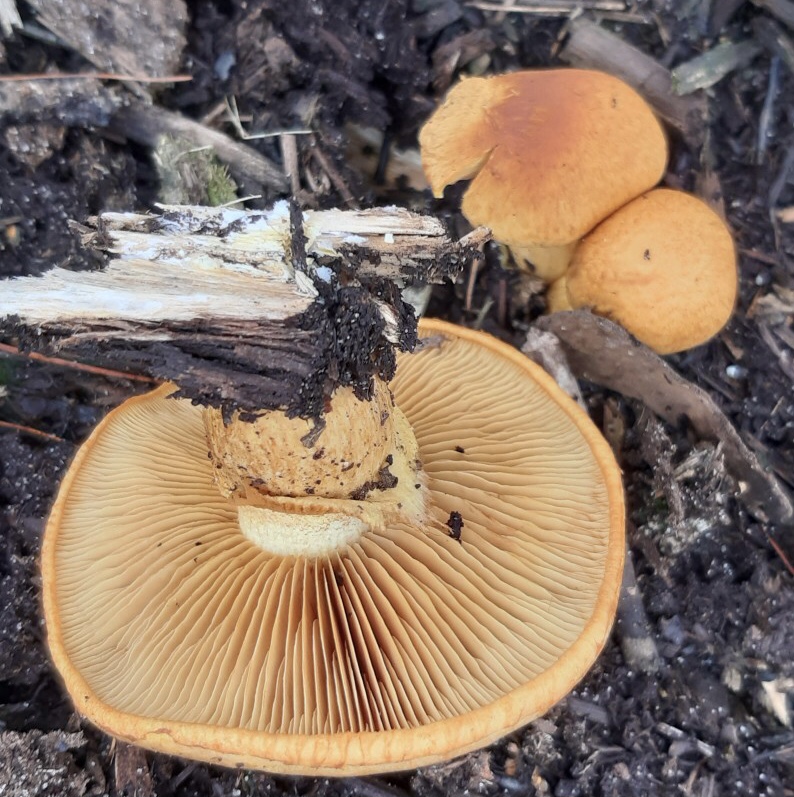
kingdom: Fungi
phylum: Basidiomycota
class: Agaricomycetes
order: Agaricales
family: Hymenogastraceae
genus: Gymnopilus
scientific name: Gymnopilus spectabilis
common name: fibret flammehat
